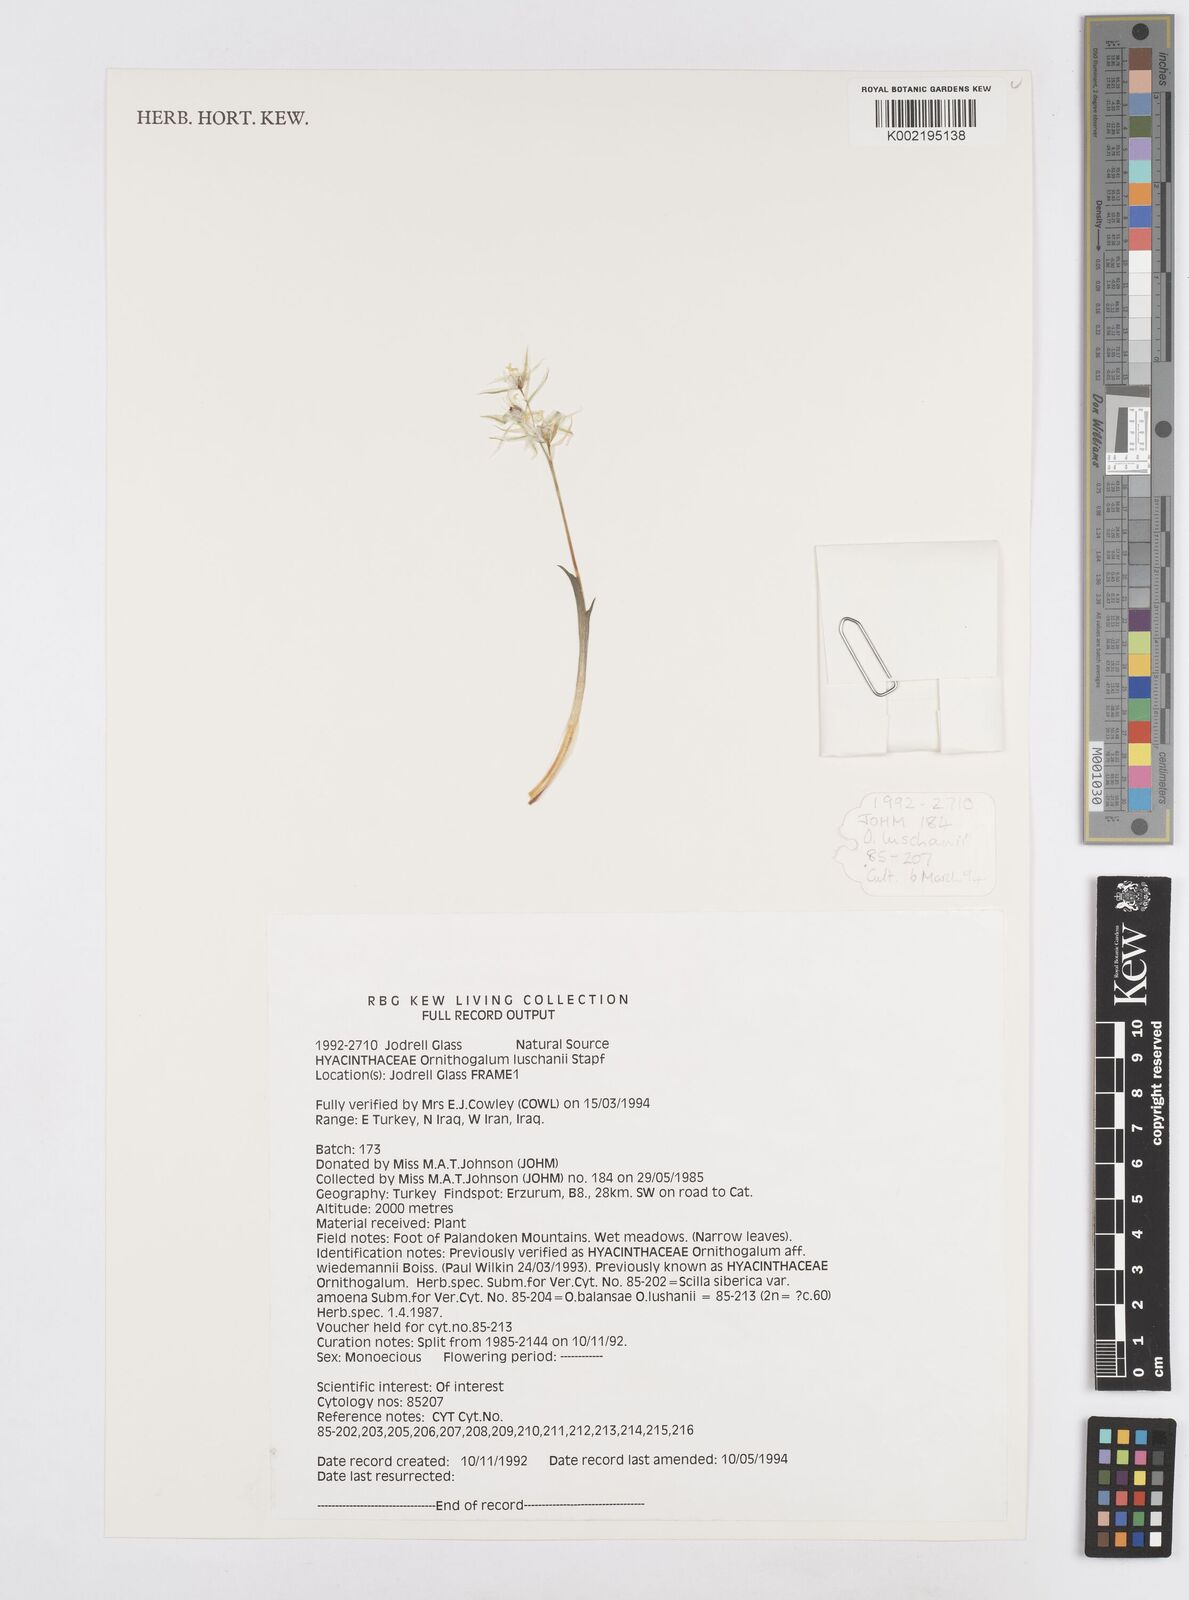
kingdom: Plantae
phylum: Tracheophyta
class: Liliopsida
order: Asparagales
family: Asparagaceae
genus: Ornithogalum
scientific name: Ornithogalum luschanii
